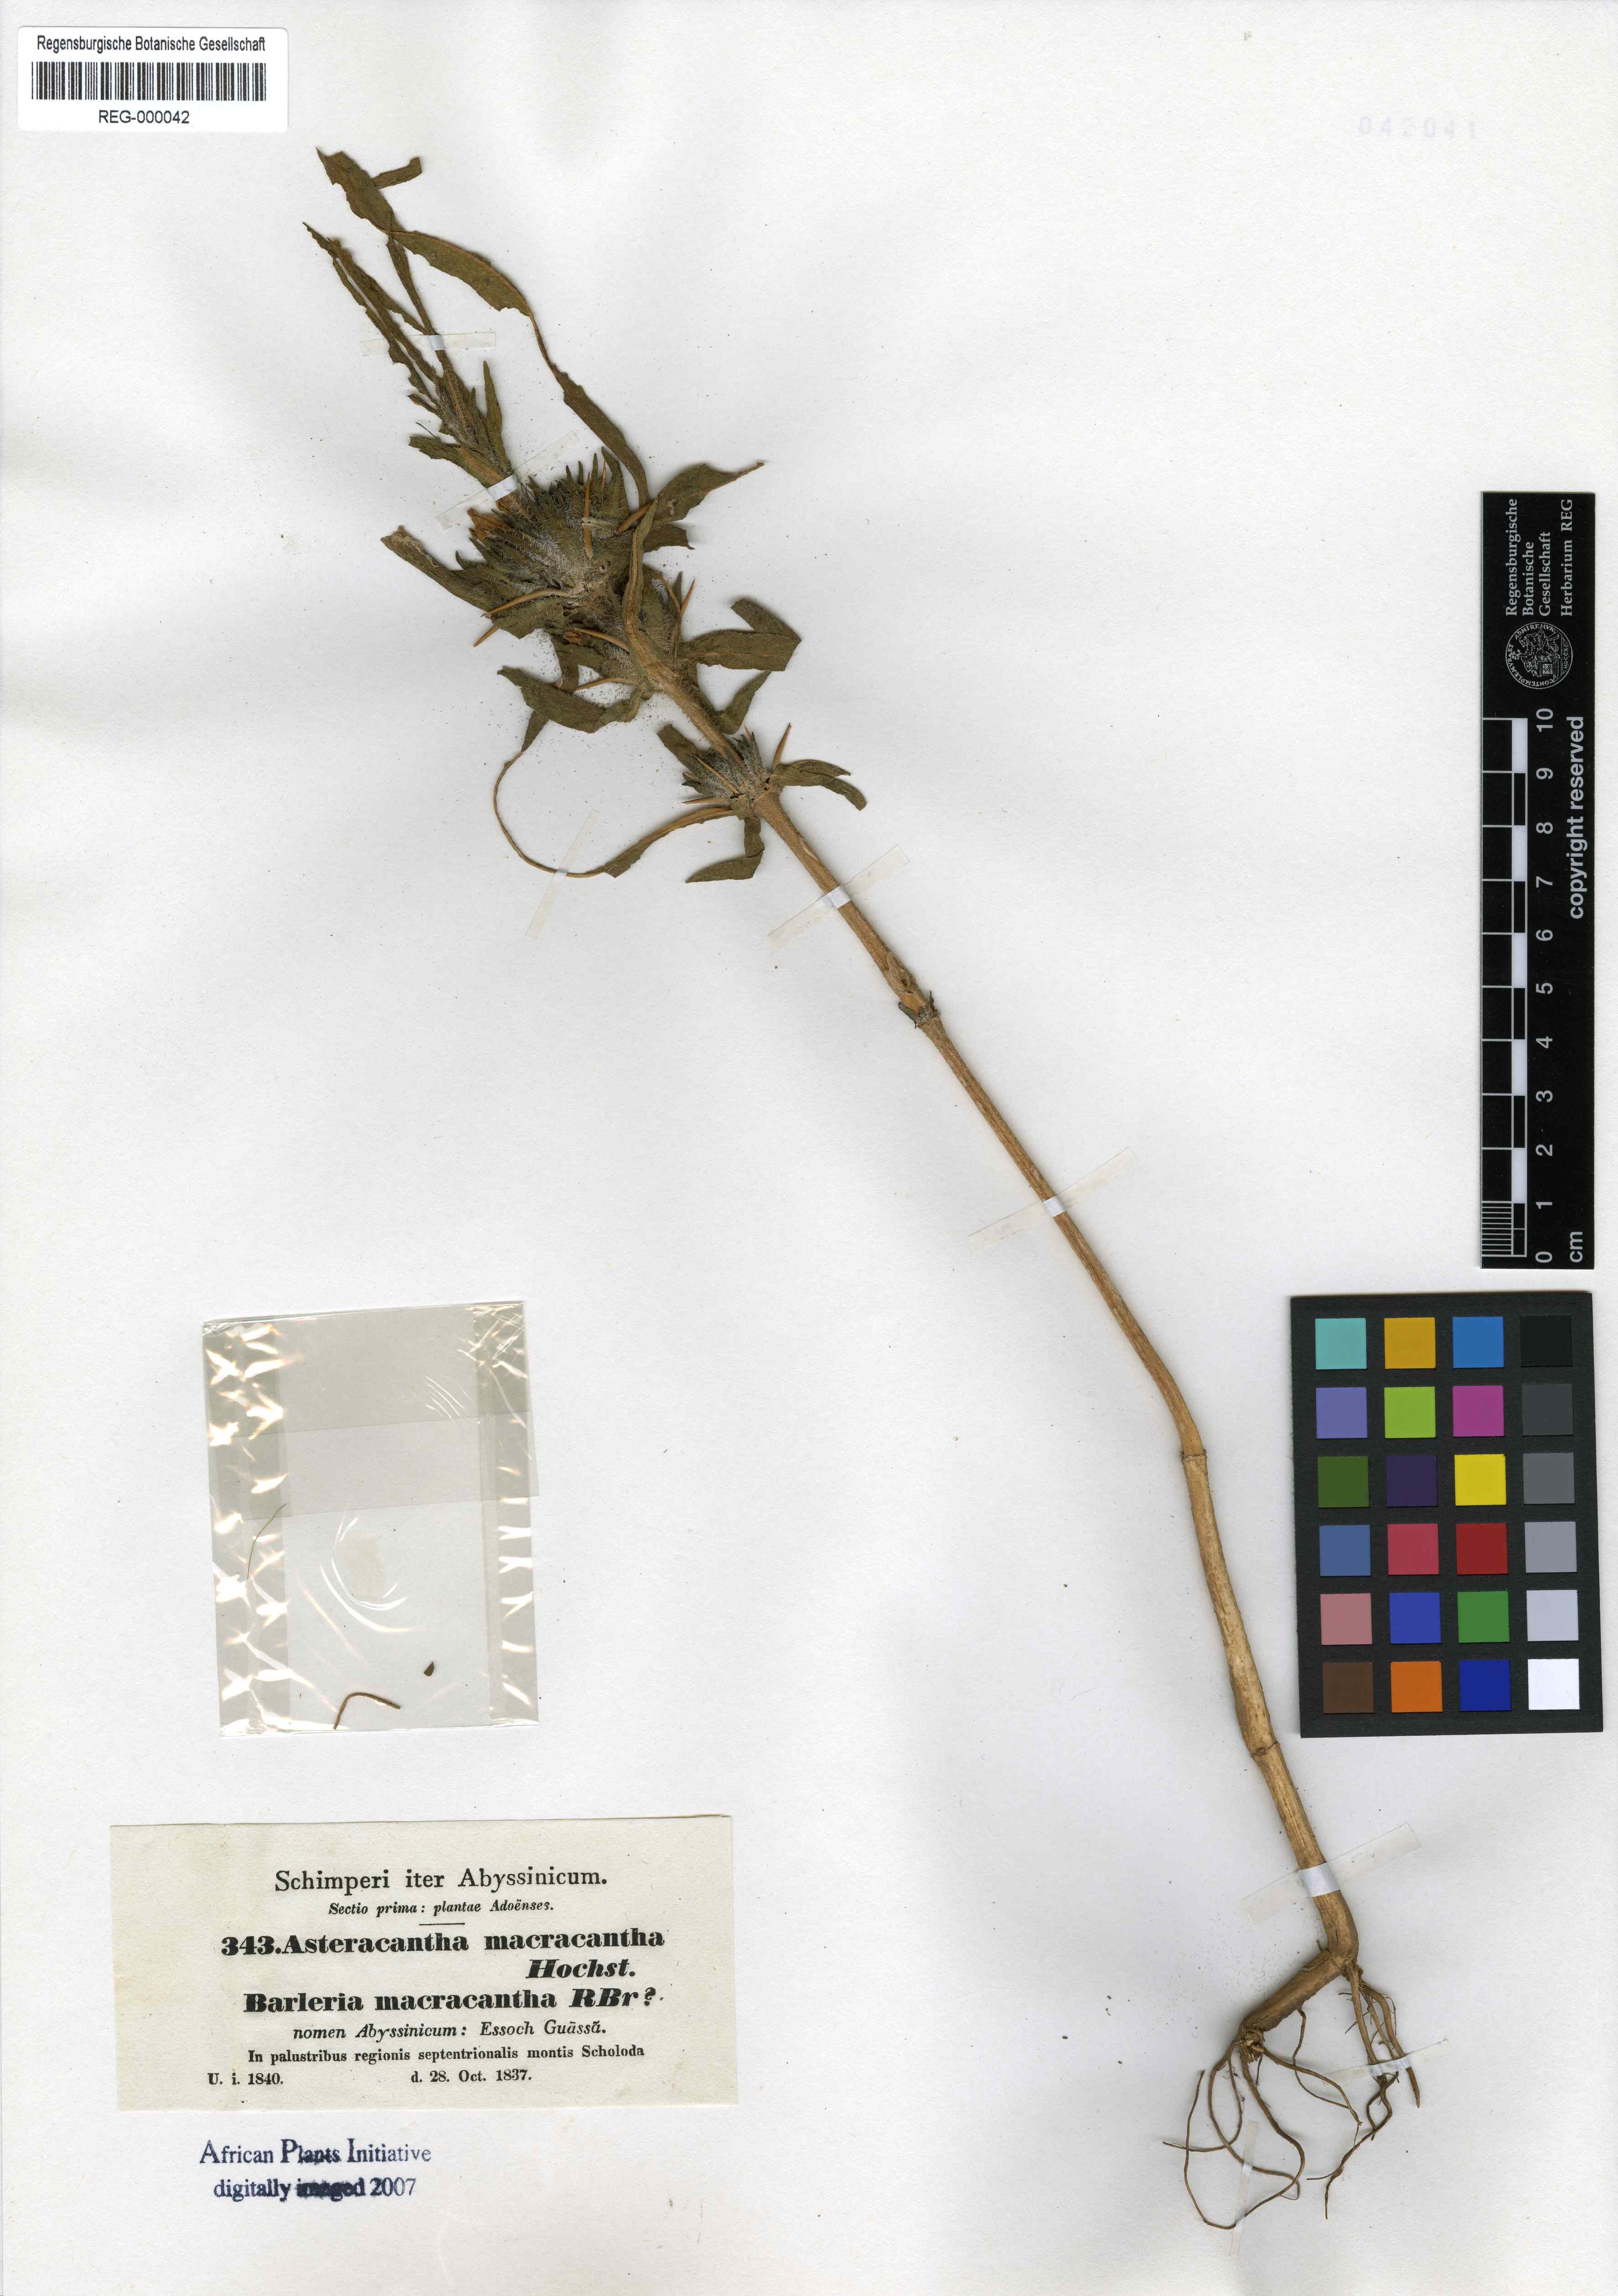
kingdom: Plantae
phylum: Tracheophyta
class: Magnoliopsida
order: Lamiales
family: Acanthaceae
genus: Hygrophila
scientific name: Hygrophila auriculata
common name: Hygrophila
